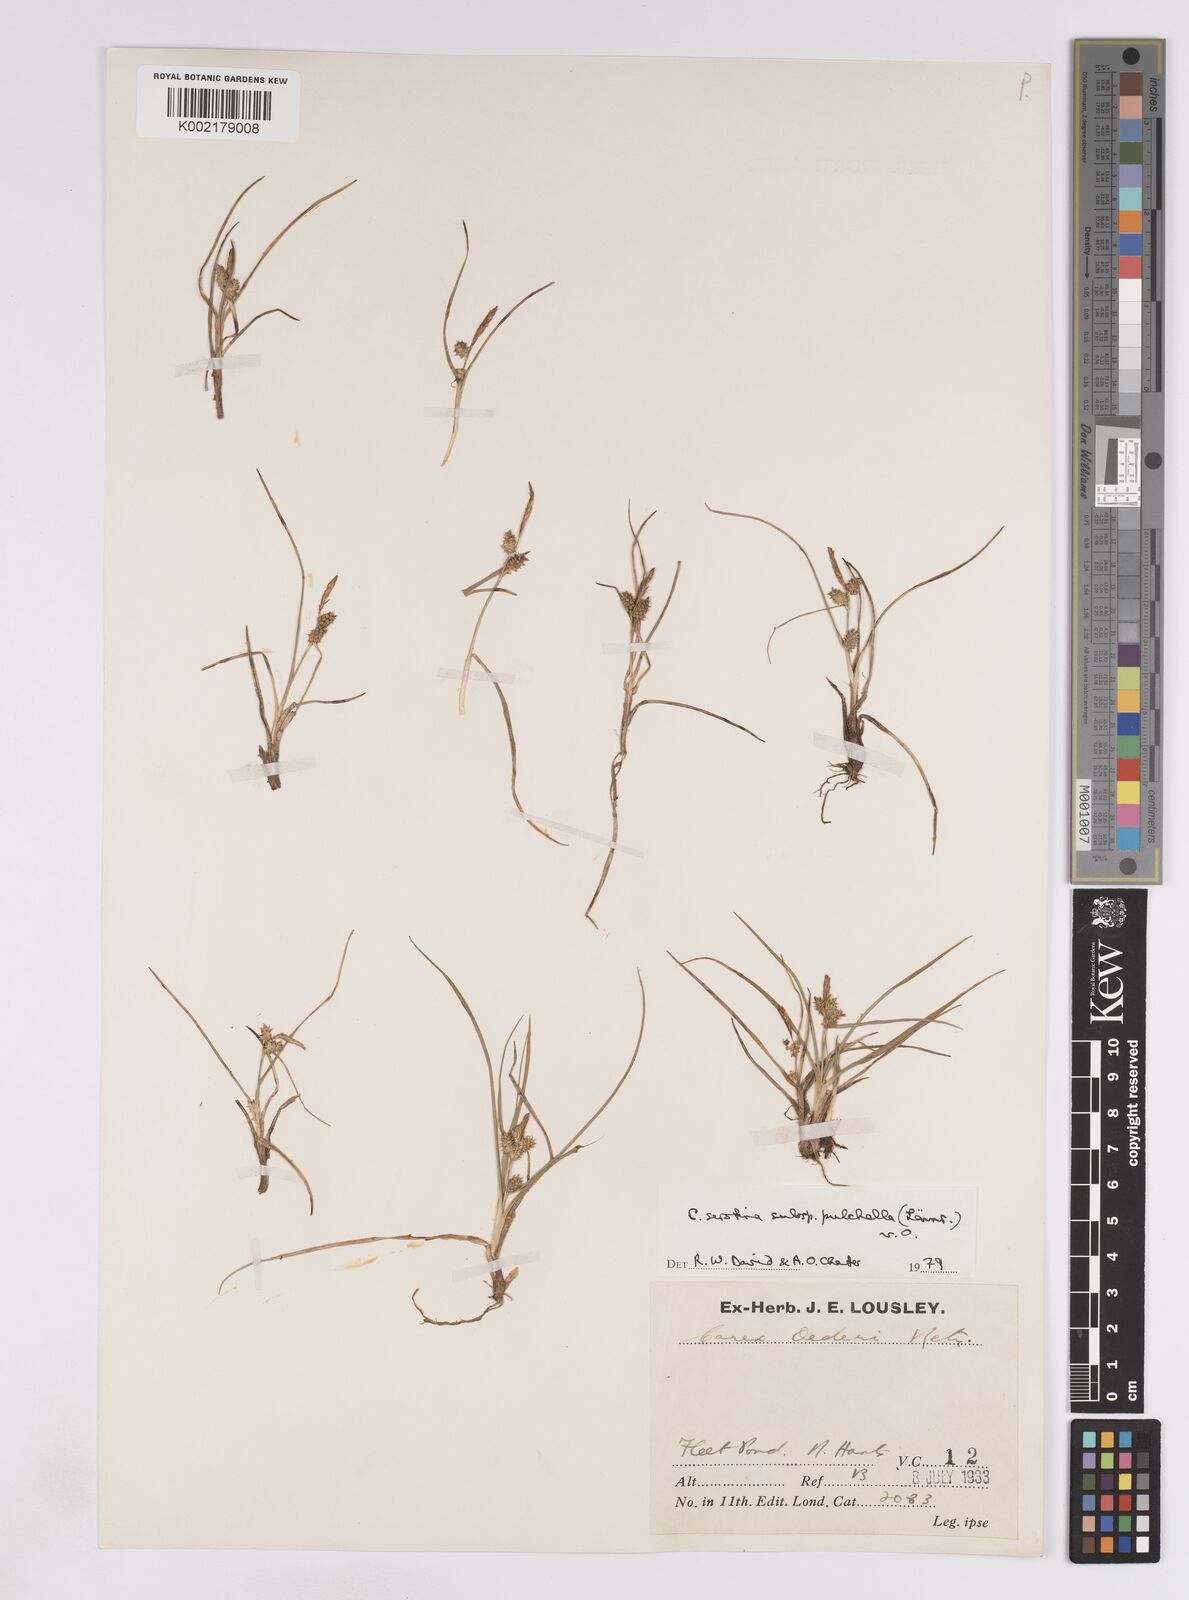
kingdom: Plantae
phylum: Tracheophyta
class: Liliopsida
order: Poales
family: Cyperaceae
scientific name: Cyperaceae
